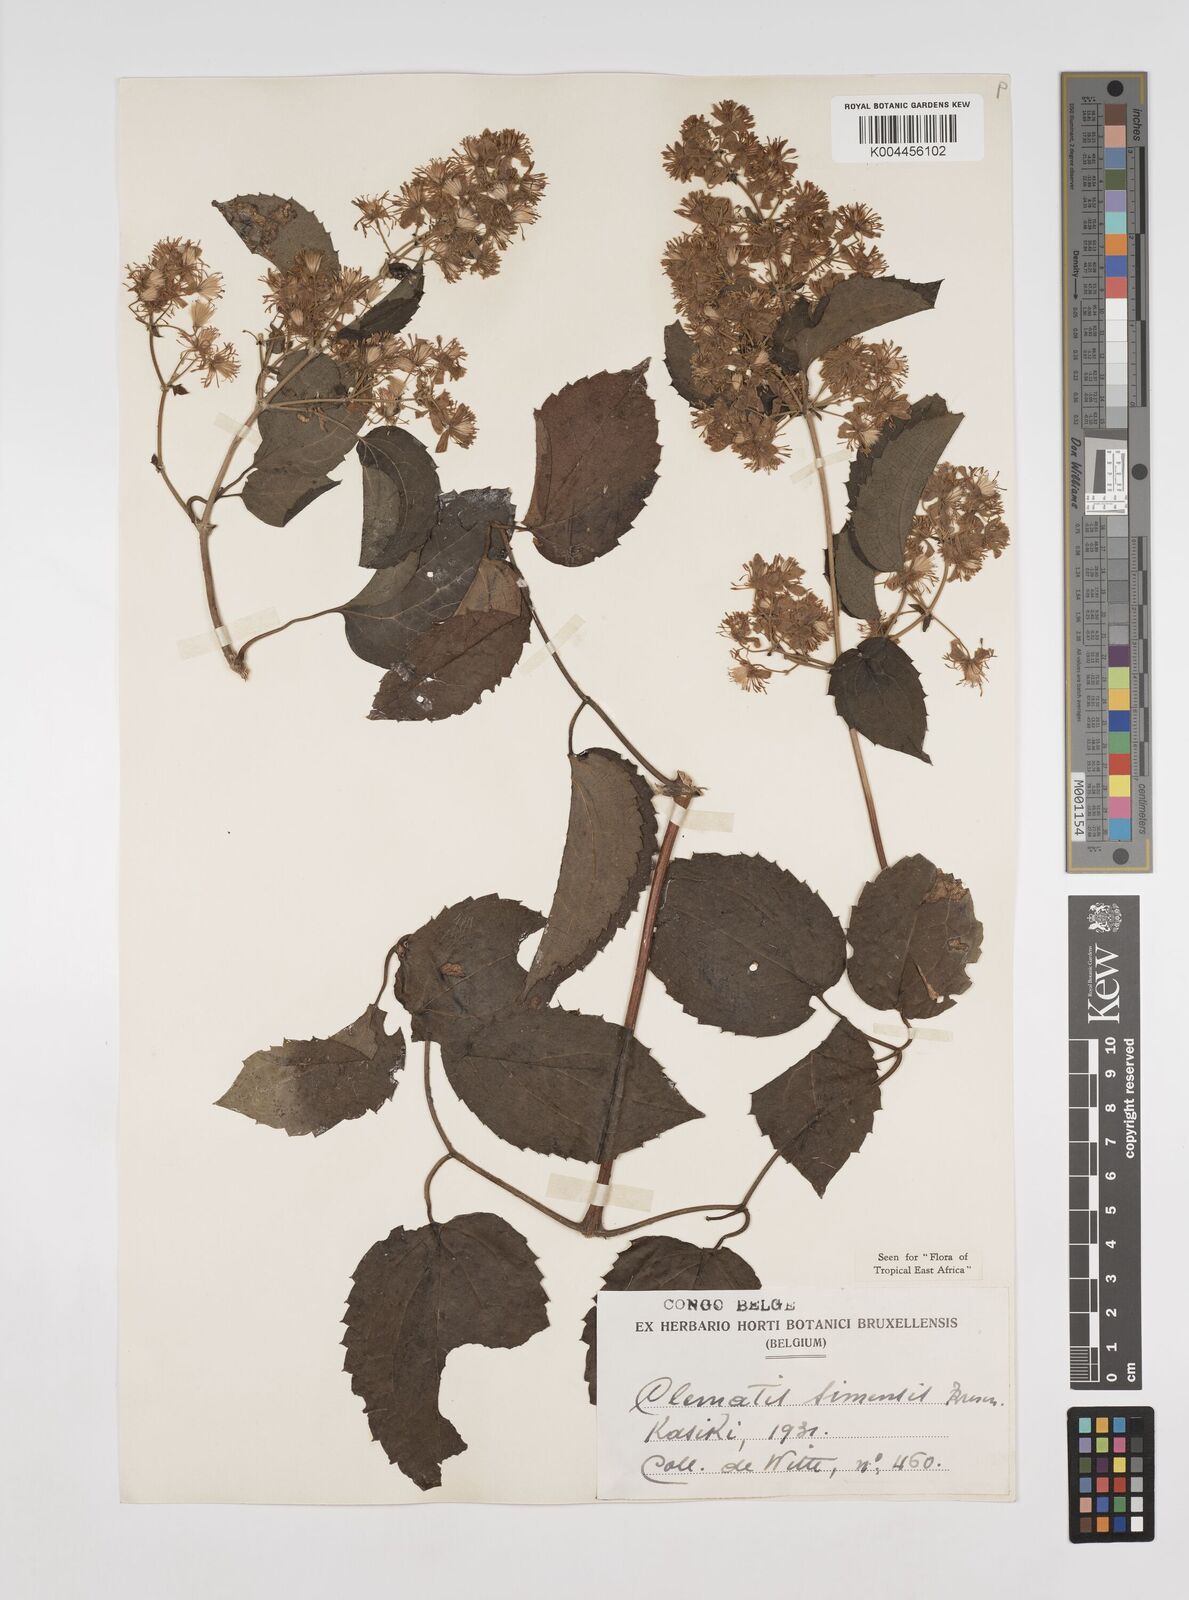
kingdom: Plantae
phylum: Tracheophyta
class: Magnoliopsida
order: Ranunculales
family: Ranunculaceae
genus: Clematis
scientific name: Clematis simensis
